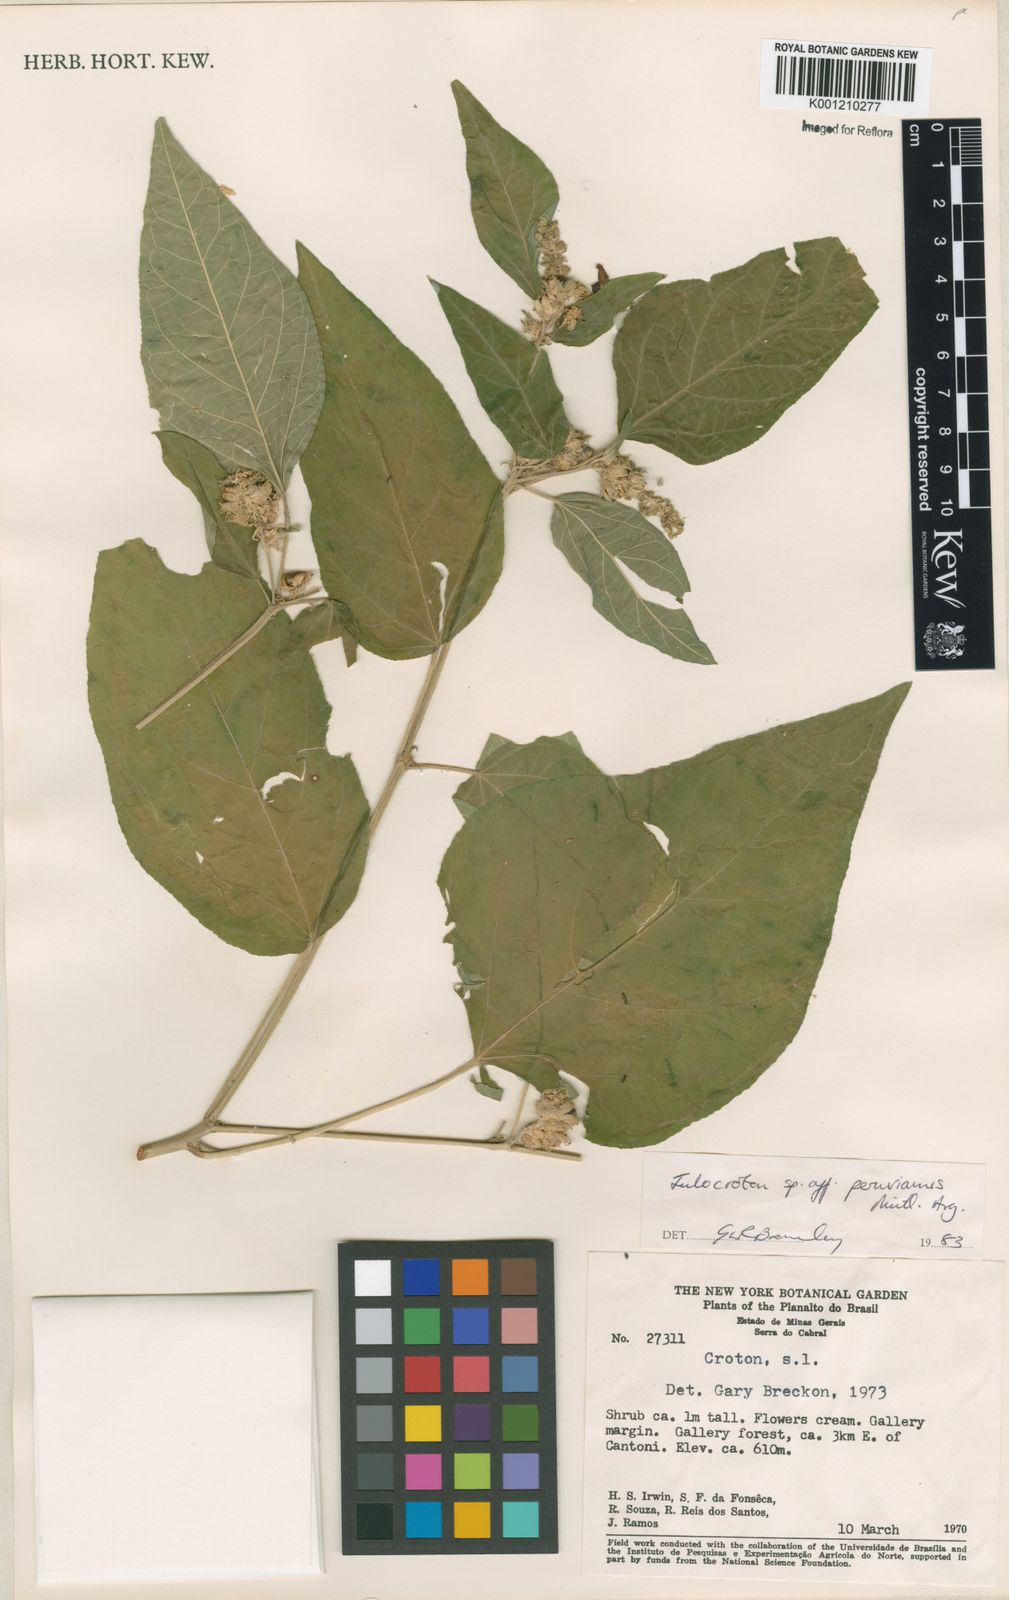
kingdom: Plantae
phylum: Tracheophyta
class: Magnoliopsida
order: Malpighiales
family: Euphorbiaceae
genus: Croton
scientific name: Croton
